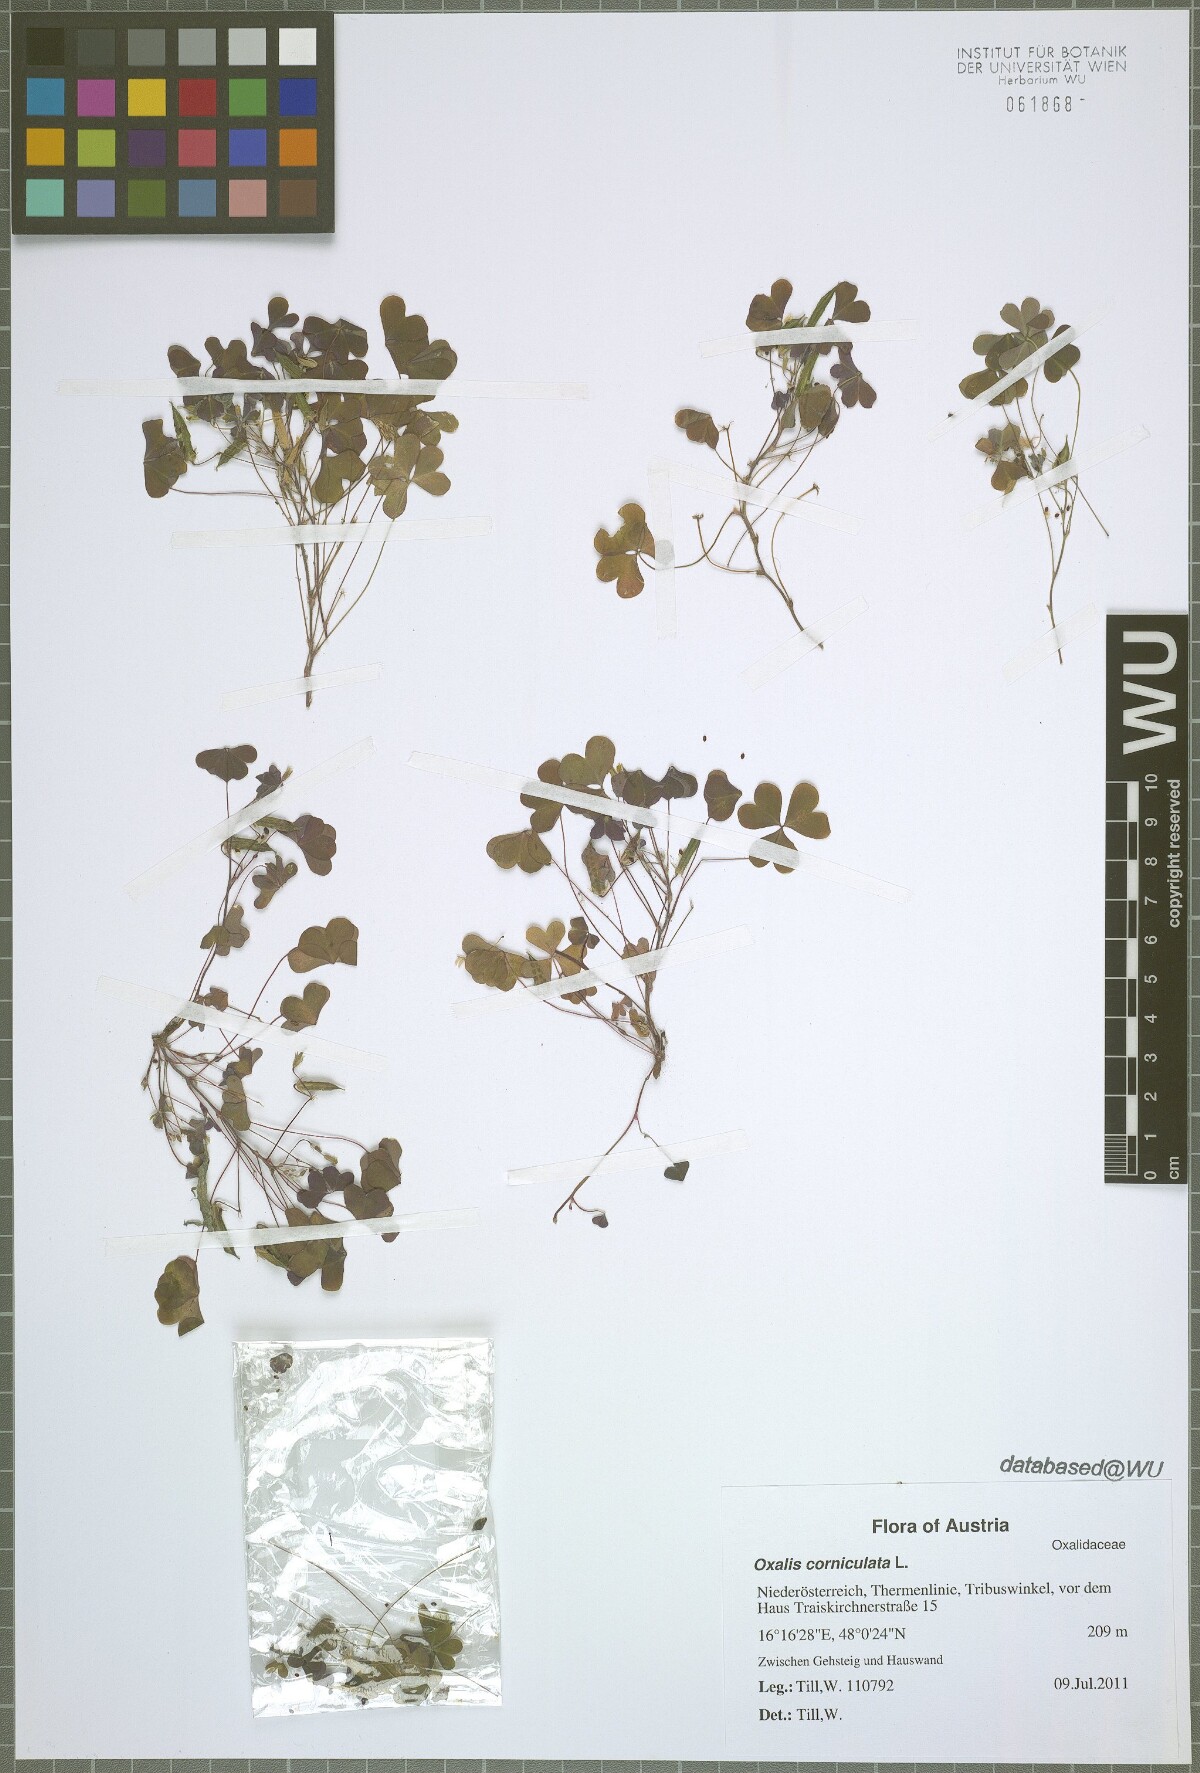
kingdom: Plantae
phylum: Tracheophyta
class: Magnoliopsida
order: Oxalidales
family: Oxalidaceae
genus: Oxalis
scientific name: Oxalis corniculata
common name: Procumbent yellow-sorrel
